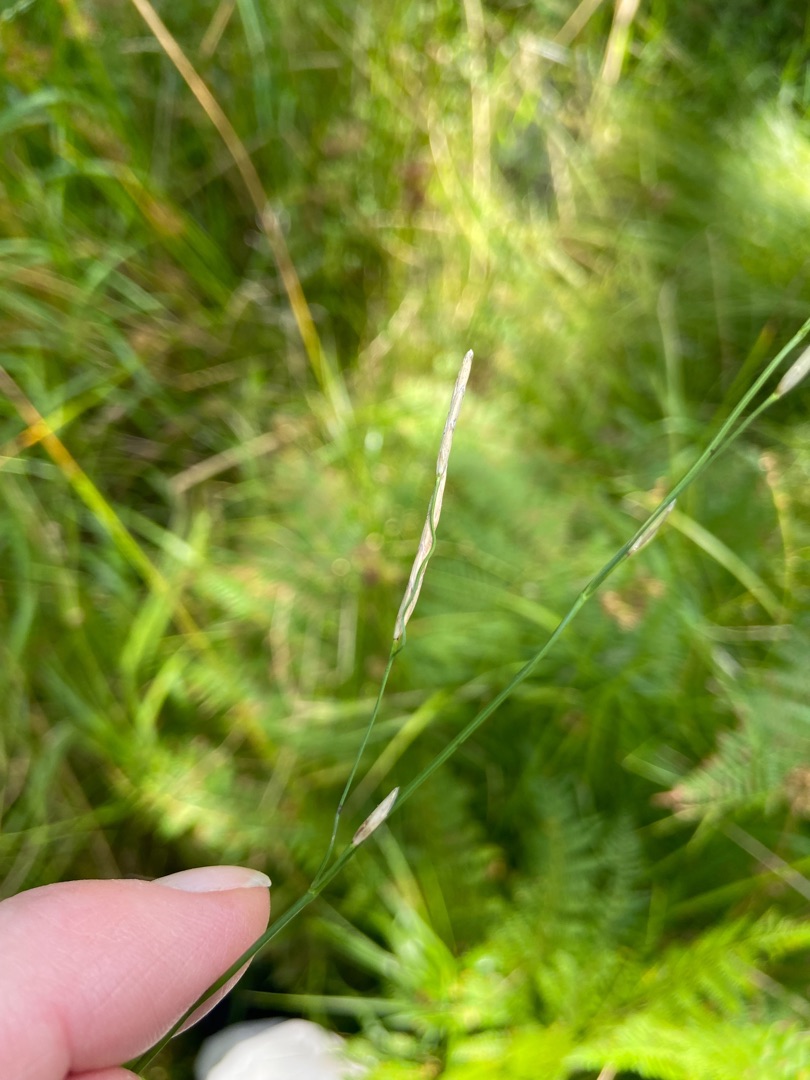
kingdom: Plantae
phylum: Tracheophyta
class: Liliopsida
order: Poales
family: Poaceae
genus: Glyceria
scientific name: Glyceria fluitans
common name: Manna-sødgræs
